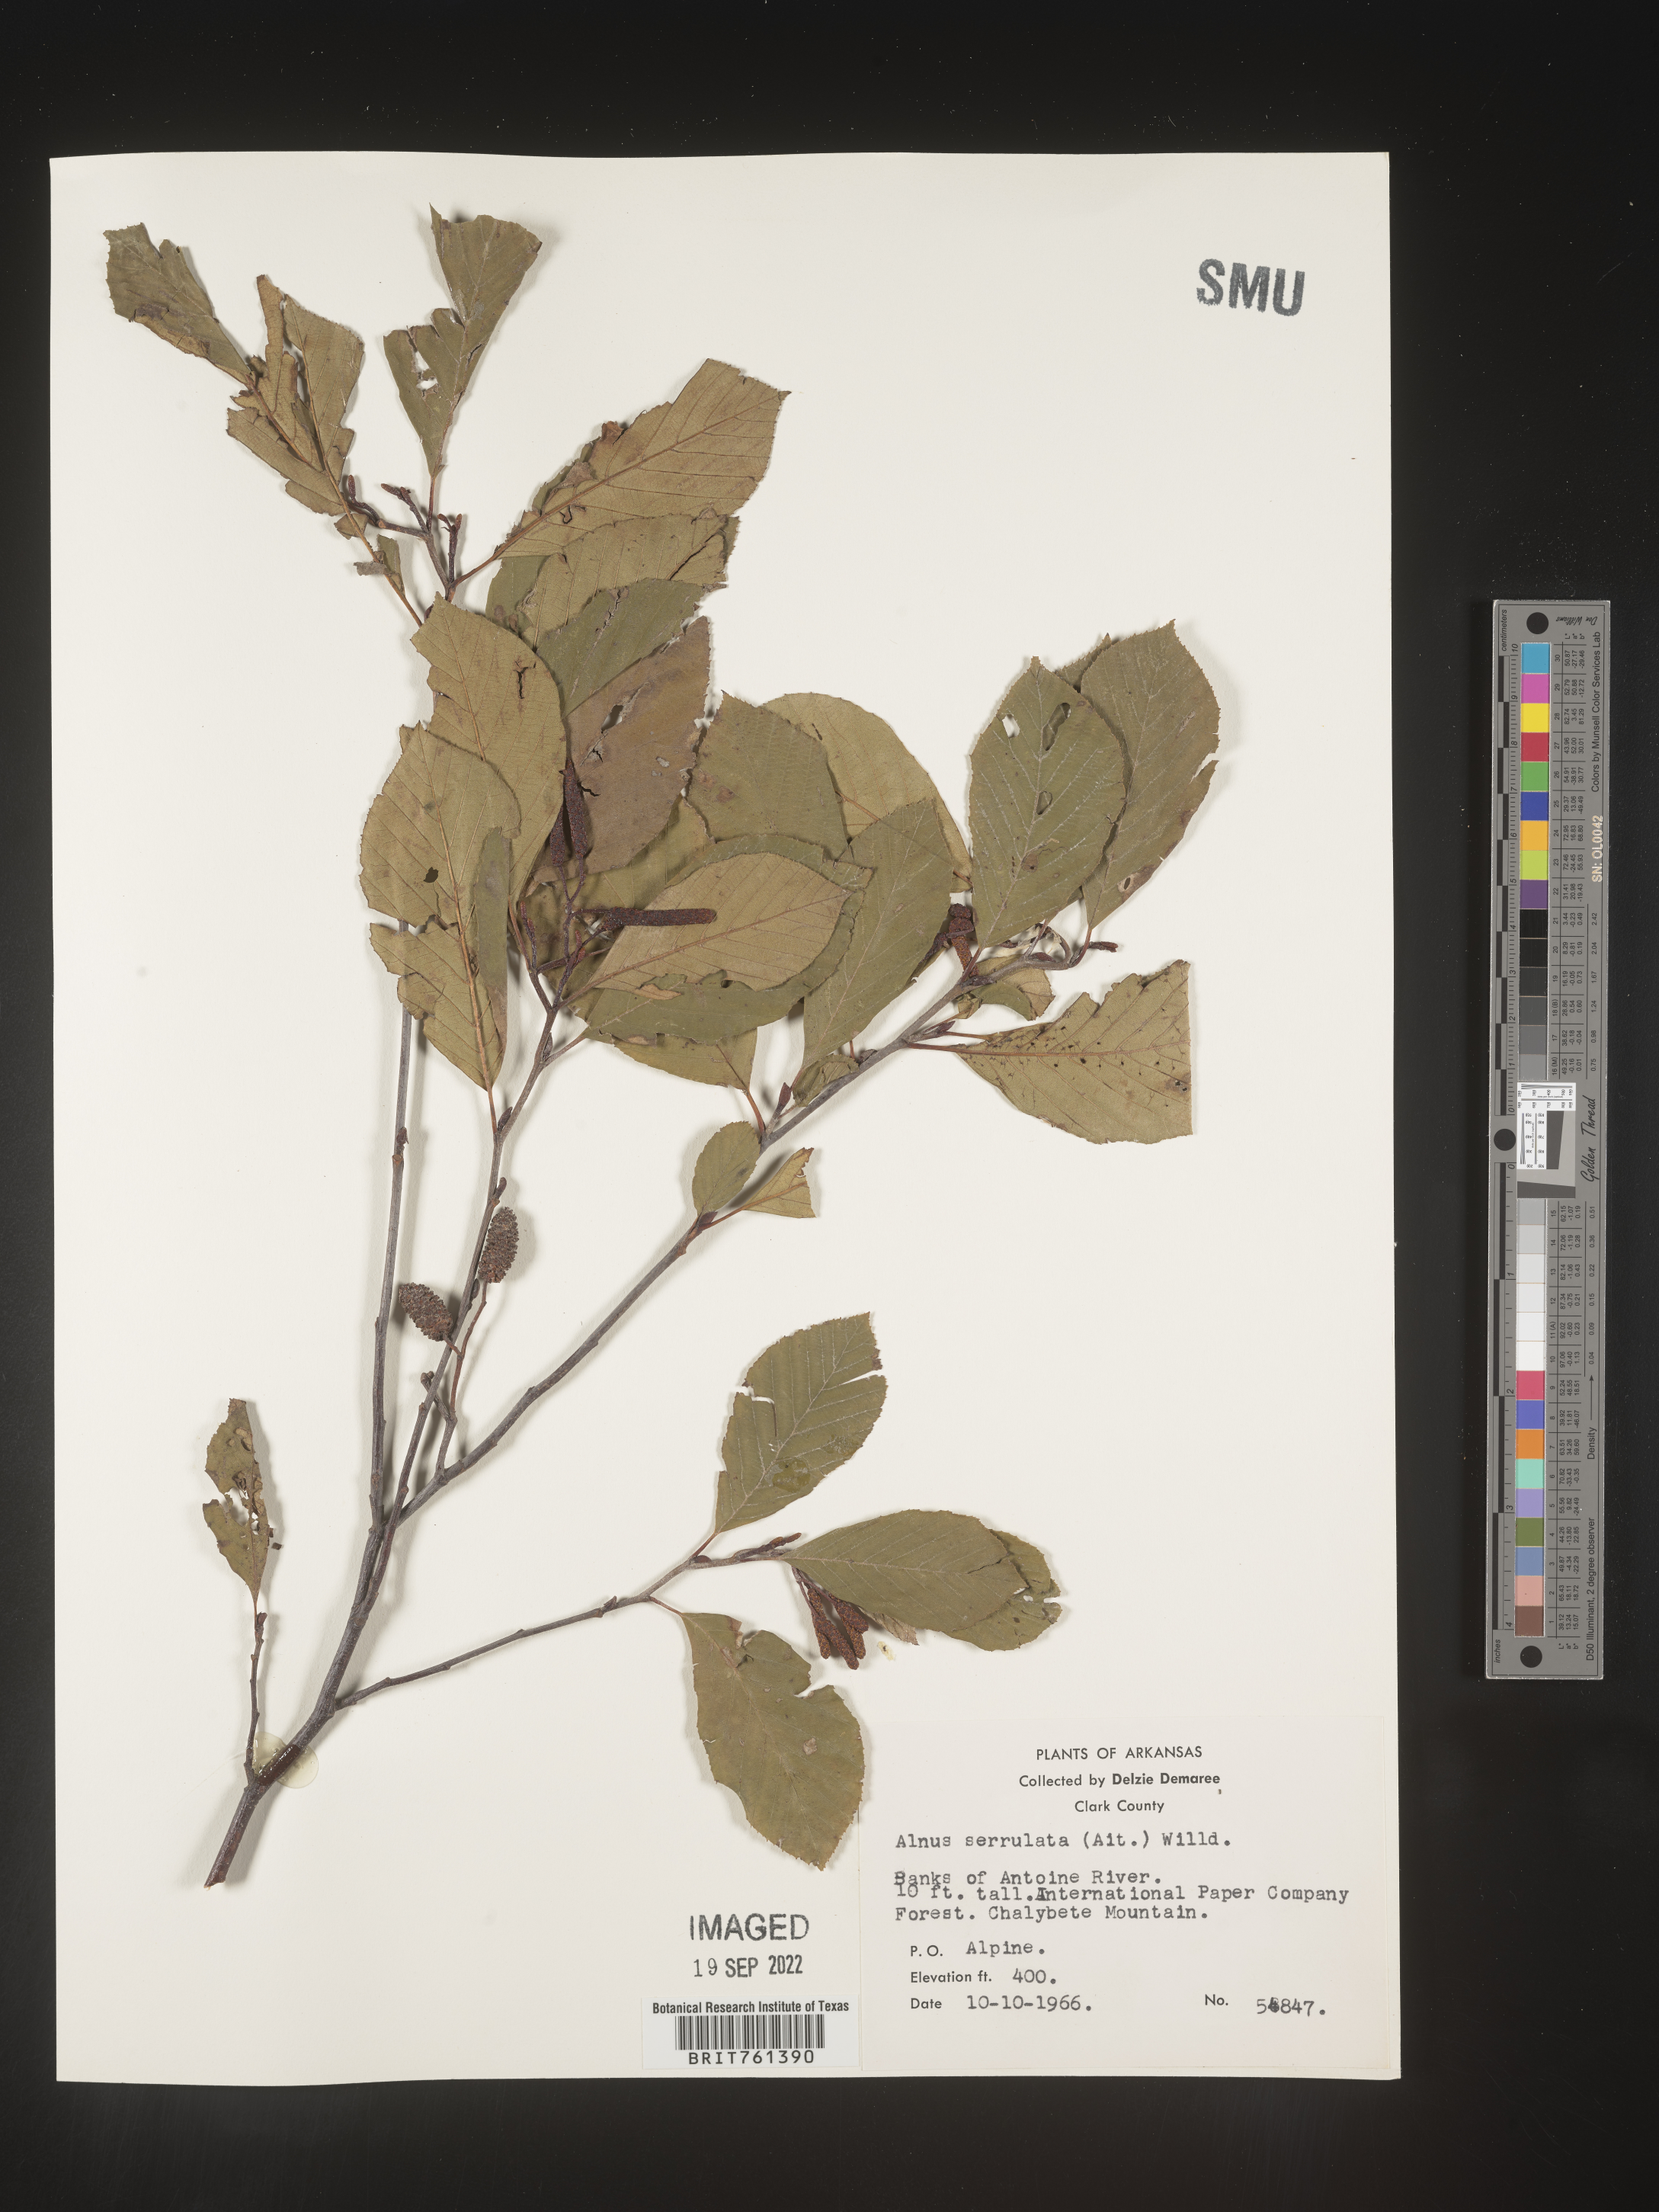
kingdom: Plantae
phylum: Tracheophyta
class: Magnoliopsida
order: Fagales
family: Betulaceae
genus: Alnus
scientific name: Alnus serrulata
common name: Hazel alder
